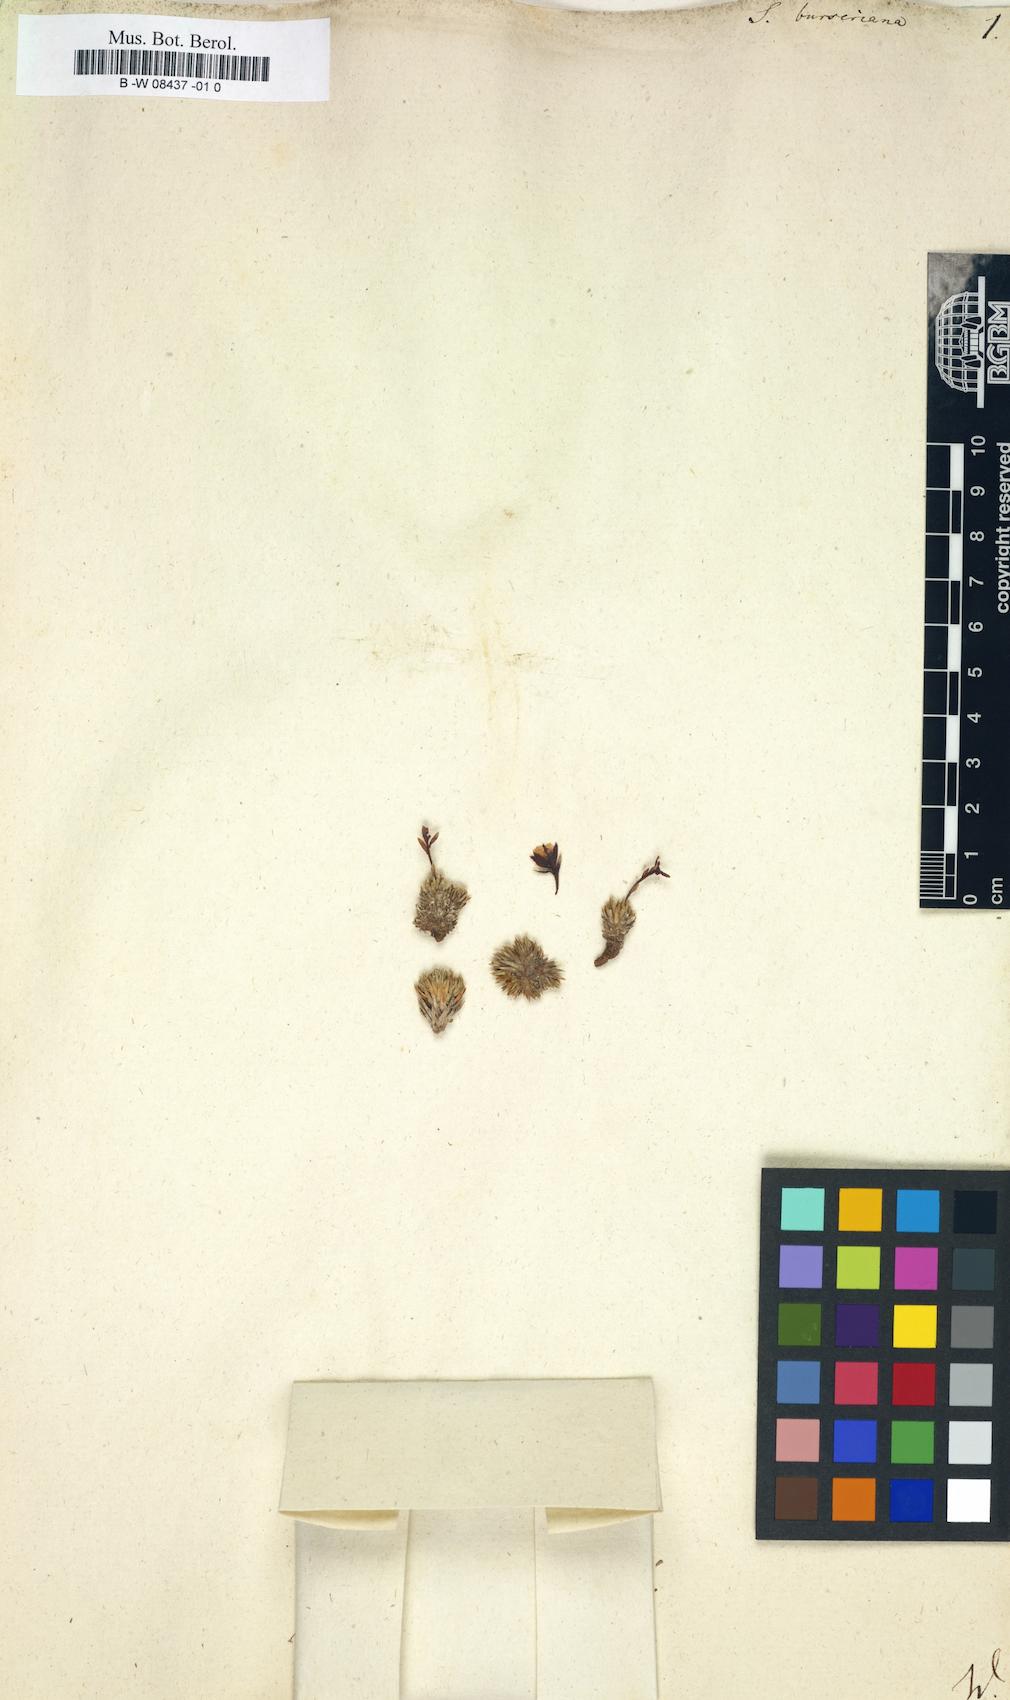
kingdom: Plantae
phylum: Tracheophyta
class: Magnoliopsida
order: Saxifragales
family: Saxifragaceae
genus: Saxifraga
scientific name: Saxifraga burseriana
